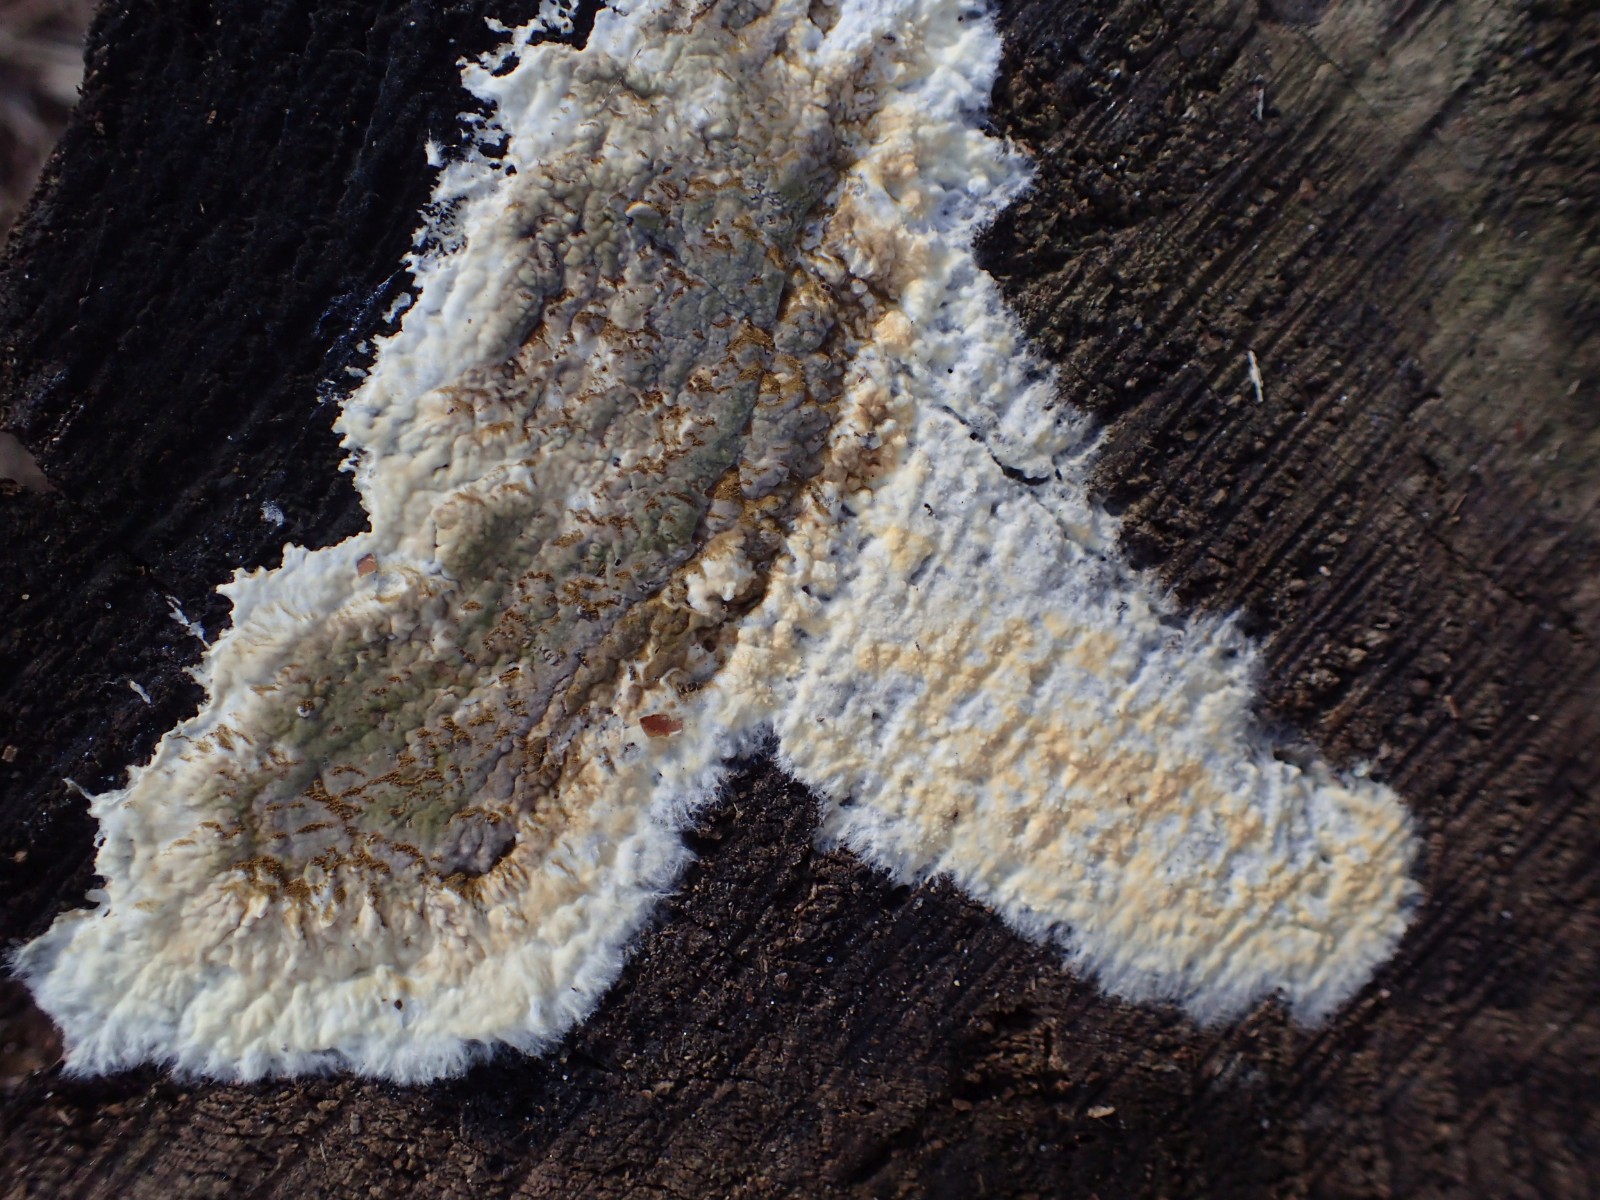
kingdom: Fungi
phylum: Basidiomycota
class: Agaricomycetes
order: Boletales
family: Coniophoraceae
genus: Coniophora
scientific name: Coniophora puteana
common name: gul tømmersvamp
